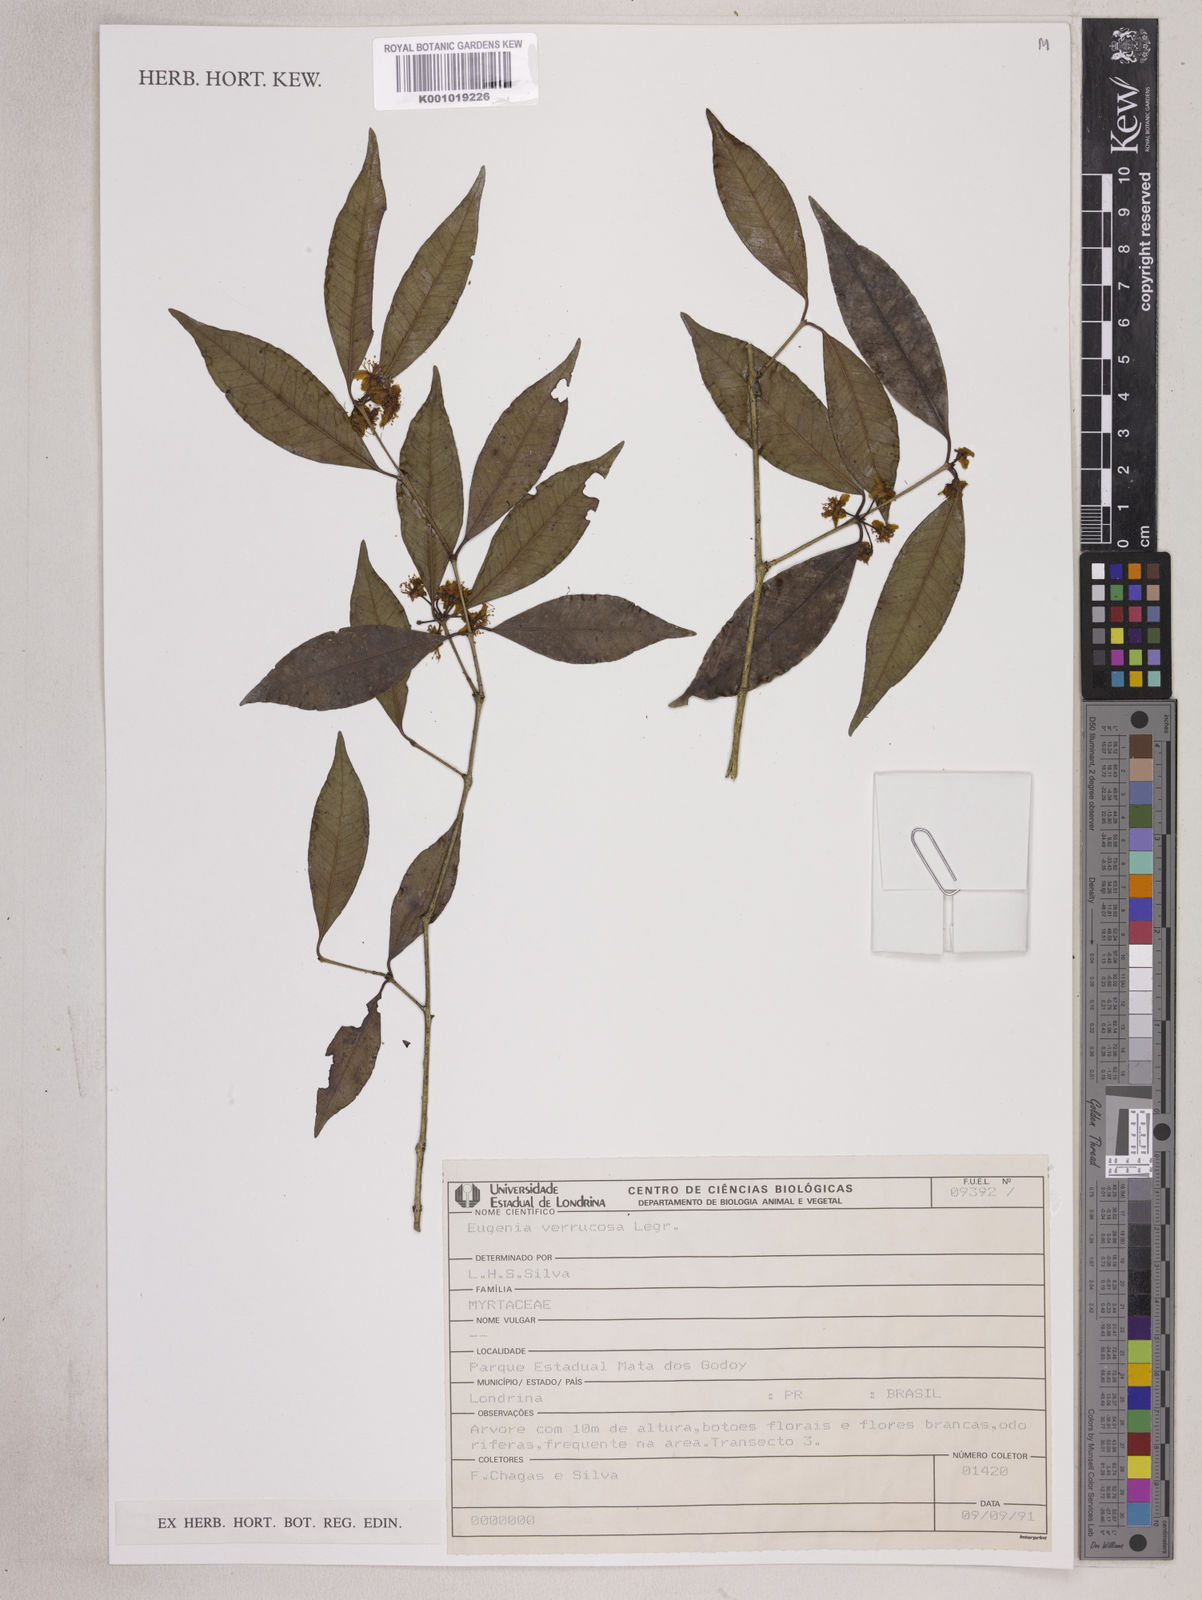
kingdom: Plantae
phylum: Tracheophyta
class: Magnoliopsida
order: Myrtales
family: Myrtaceae
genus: Eugenia
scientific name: Eugenia neoverrucosa
